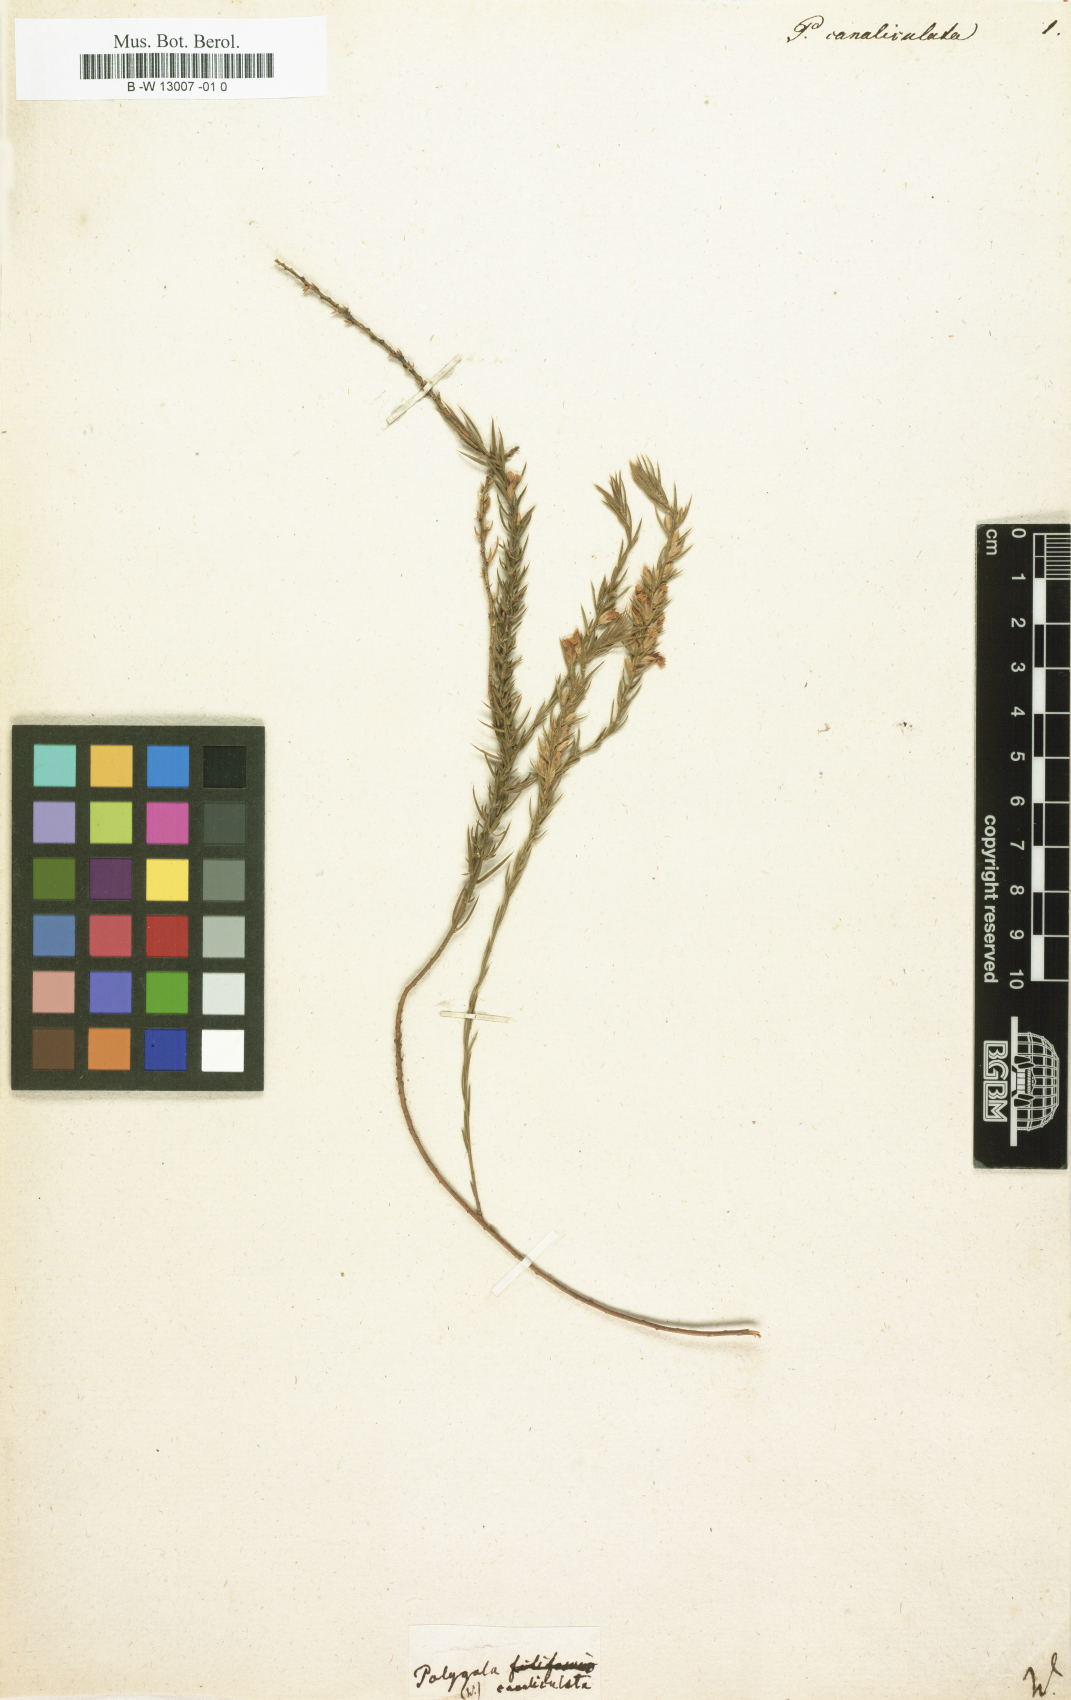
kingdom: Plantae
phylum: Tracheophyta
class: Magnoliopsida
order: Fabales
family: Polygalaceae
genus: Polygala
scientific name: Polygala canaliculata
